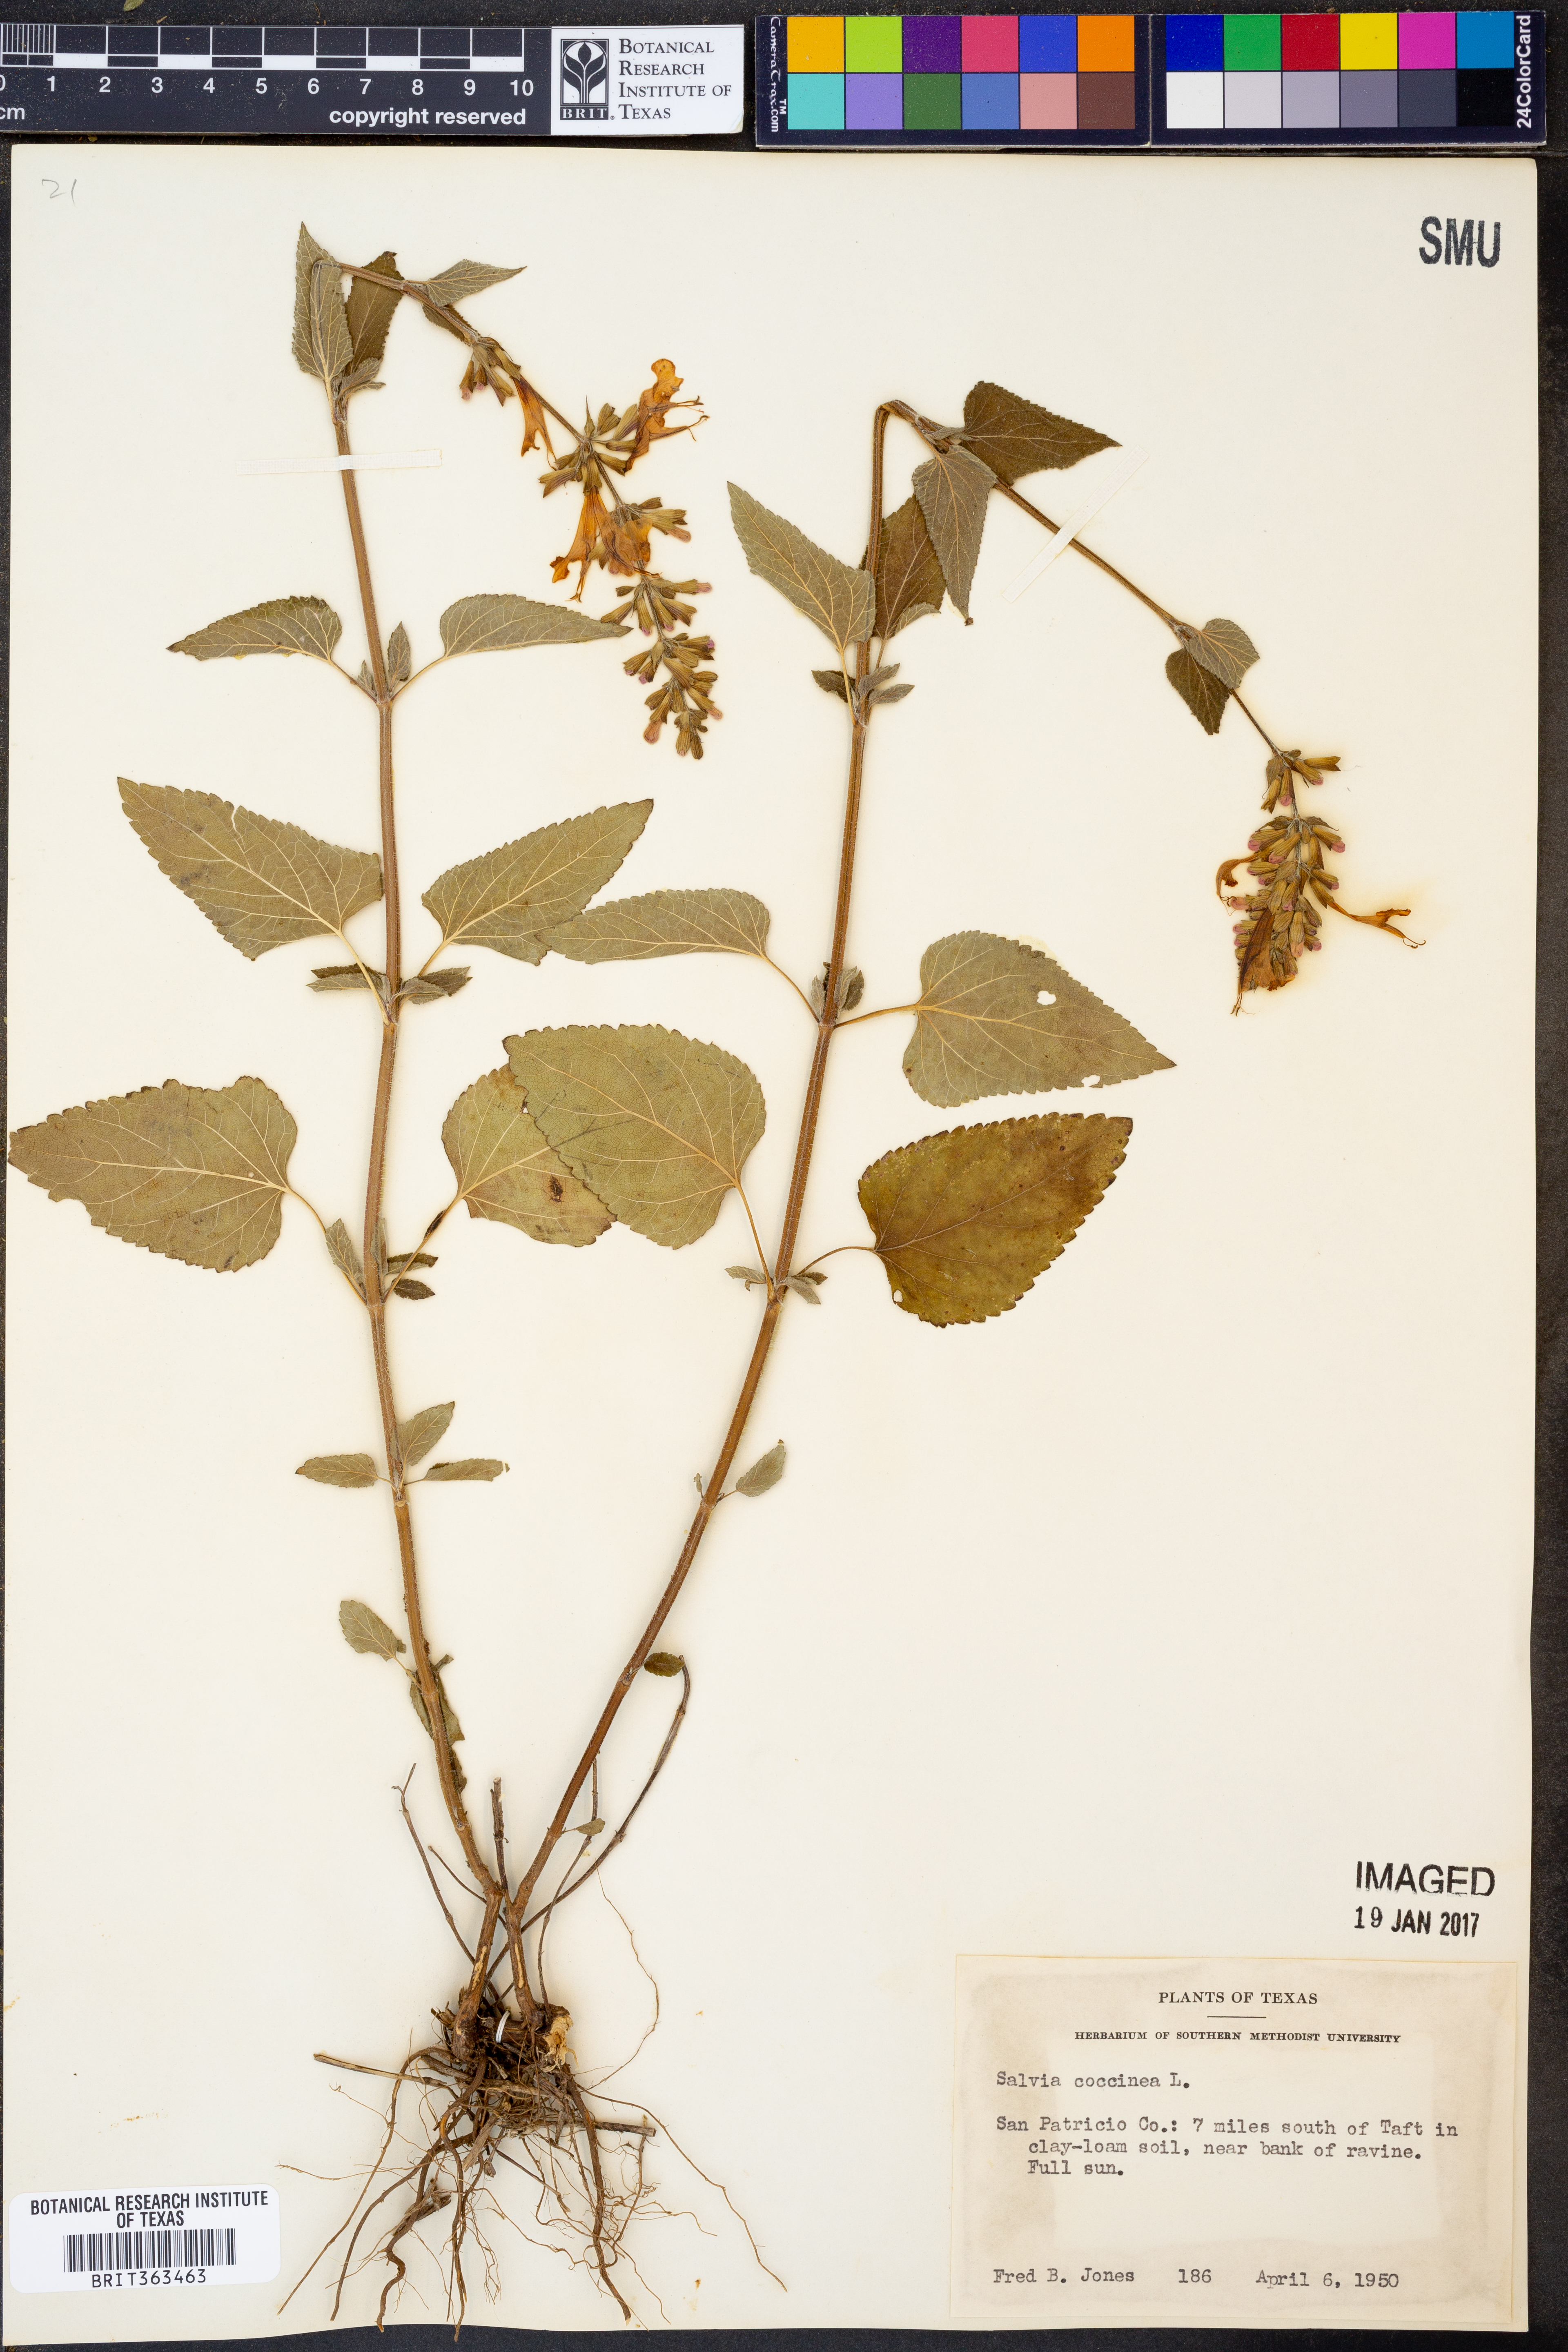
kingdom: Plantae
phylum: Tracheophyta
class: Magnoliopsida
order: Lamiales
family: Lamiaceae
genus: Salvia
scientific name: Salvia coccinea
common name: Blood sage
